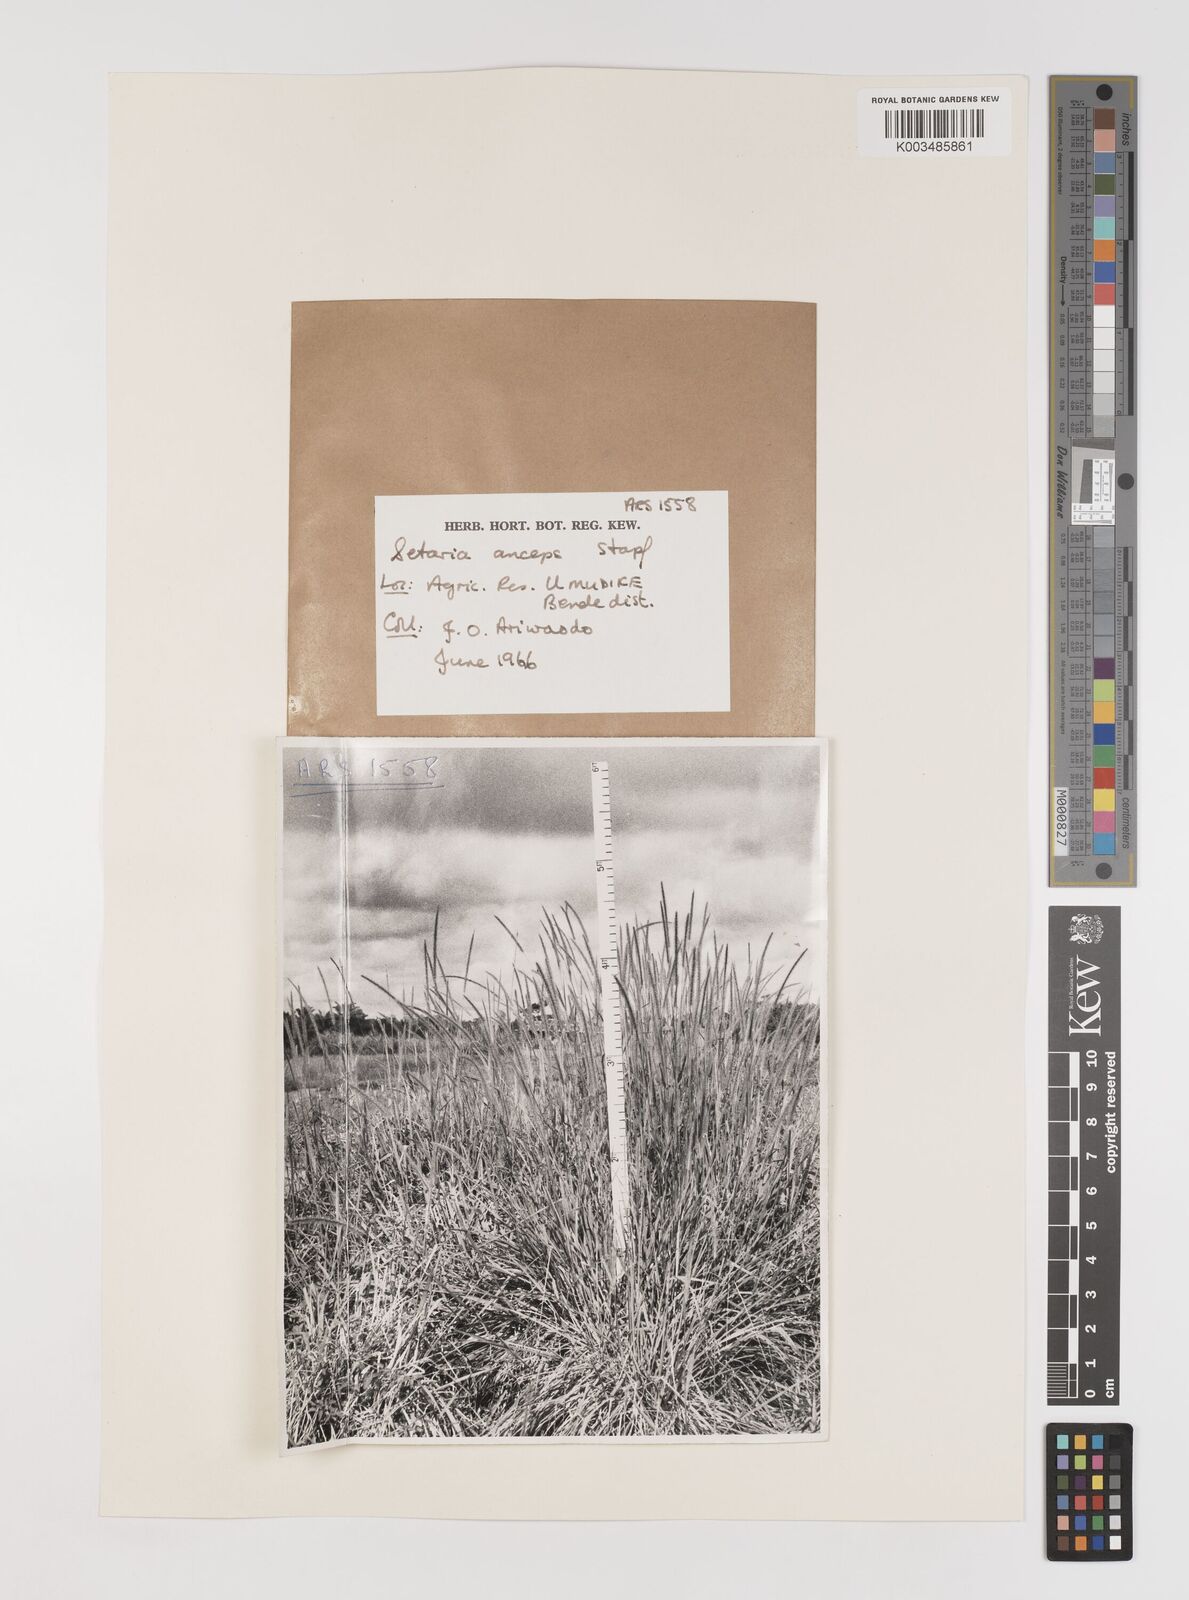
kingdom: Plantae
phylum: Tracheophyta
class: Liliopsida
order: Poales
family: Poaceae
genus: Setaria
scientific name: Setaria sphacelata
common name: African bristlegrass
